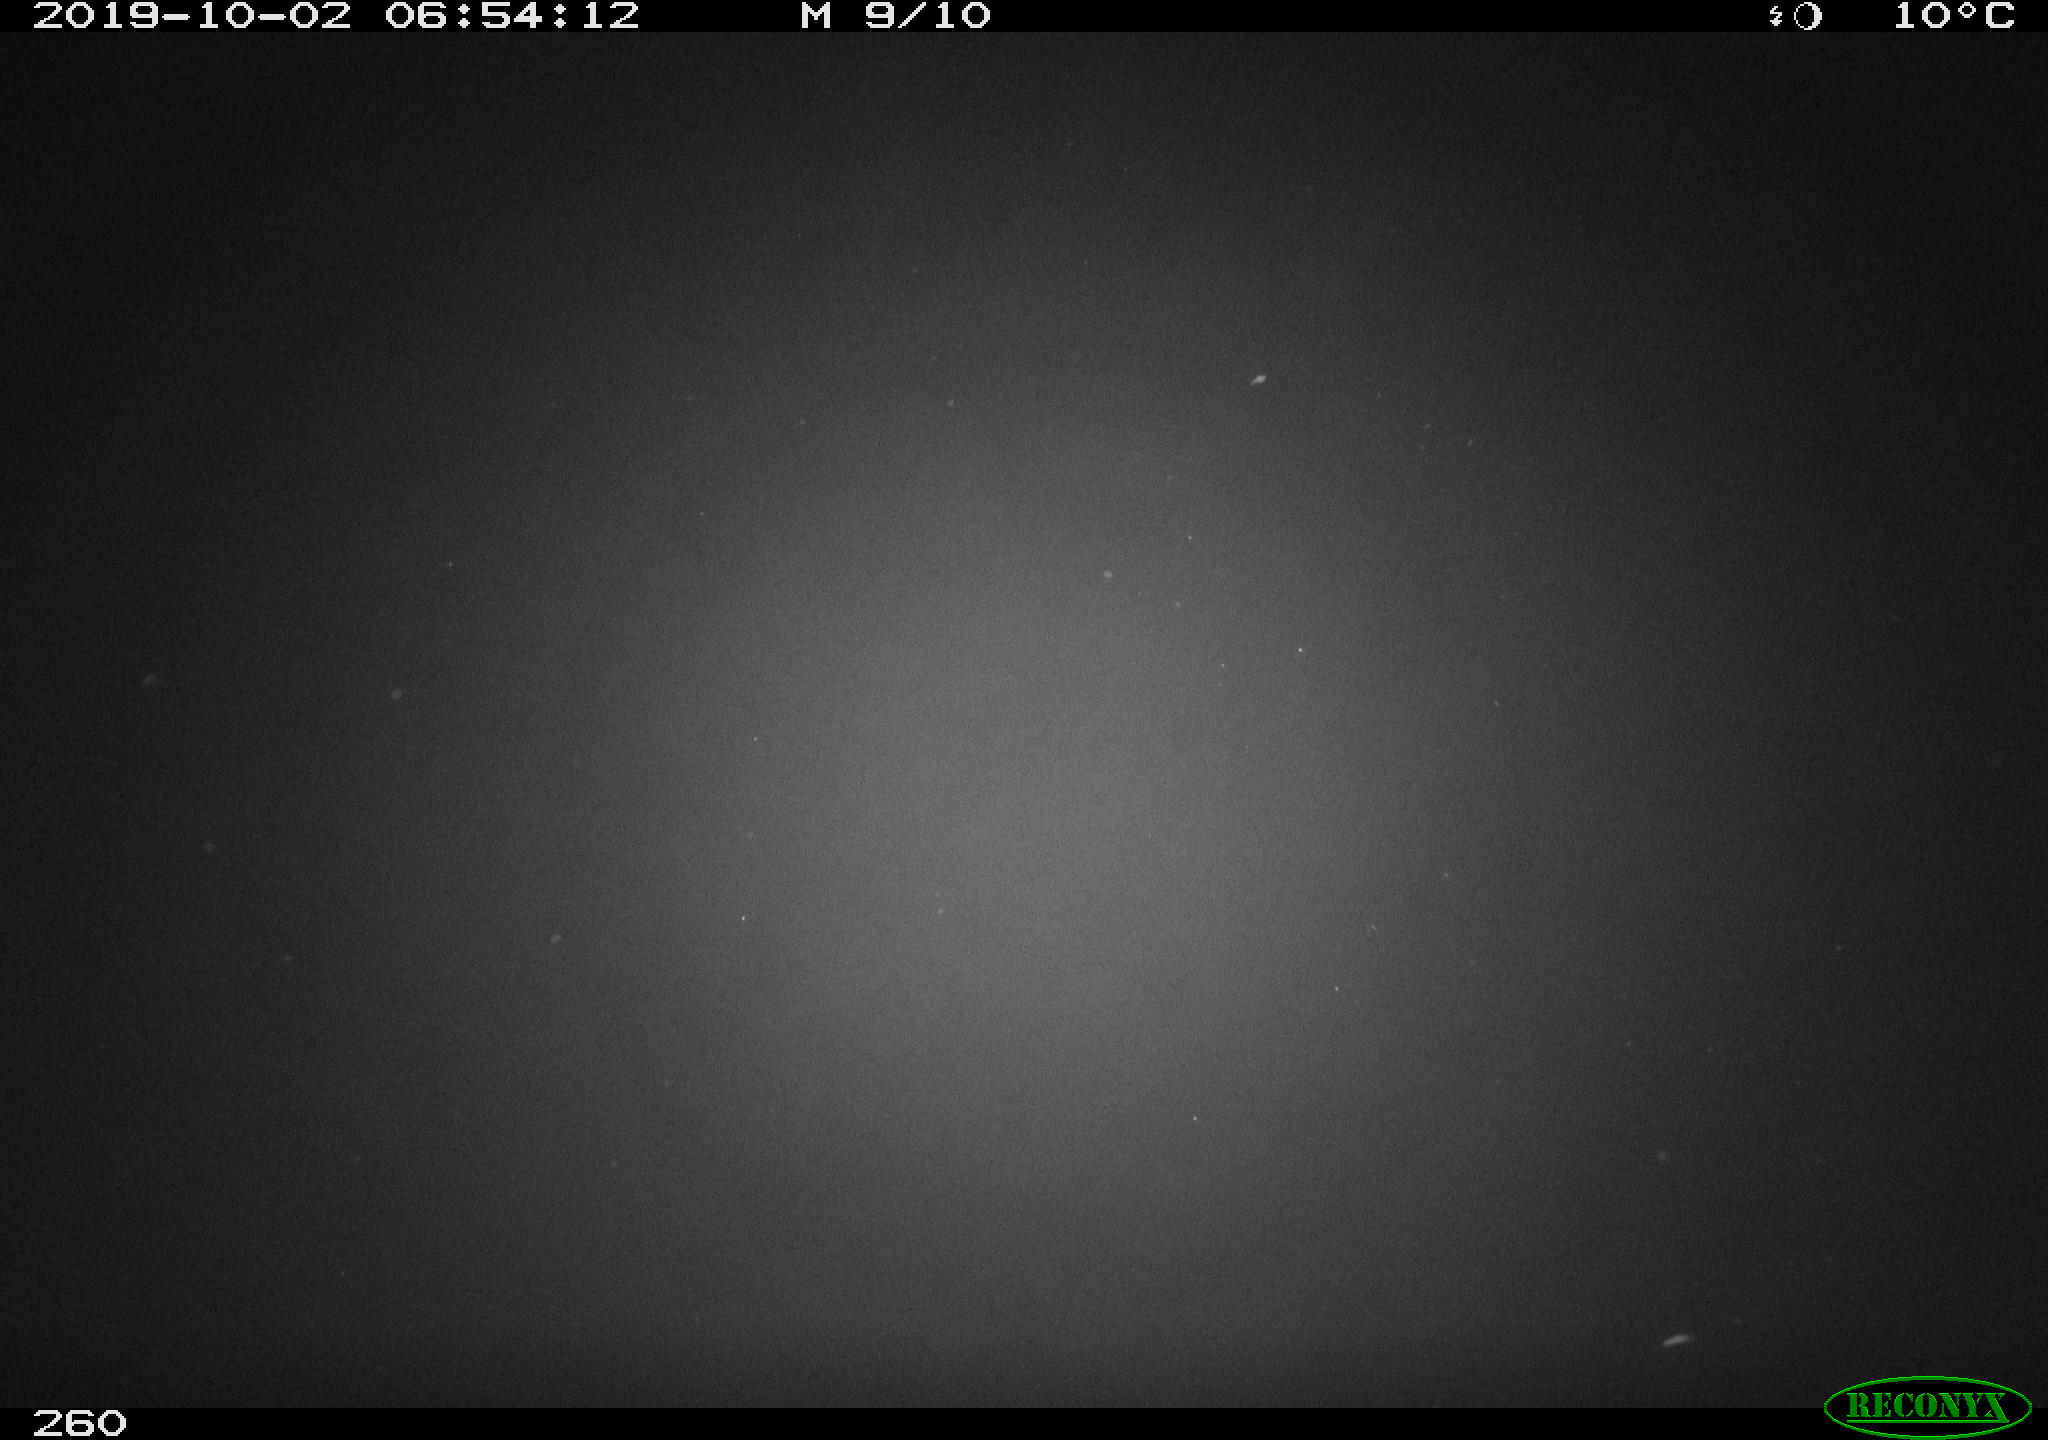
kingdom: Animalia
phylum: Chordata
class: Aves
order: Anseriformes
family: Anatidae
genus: Anas
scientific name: Anas platyrhynchos
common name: Mallard
